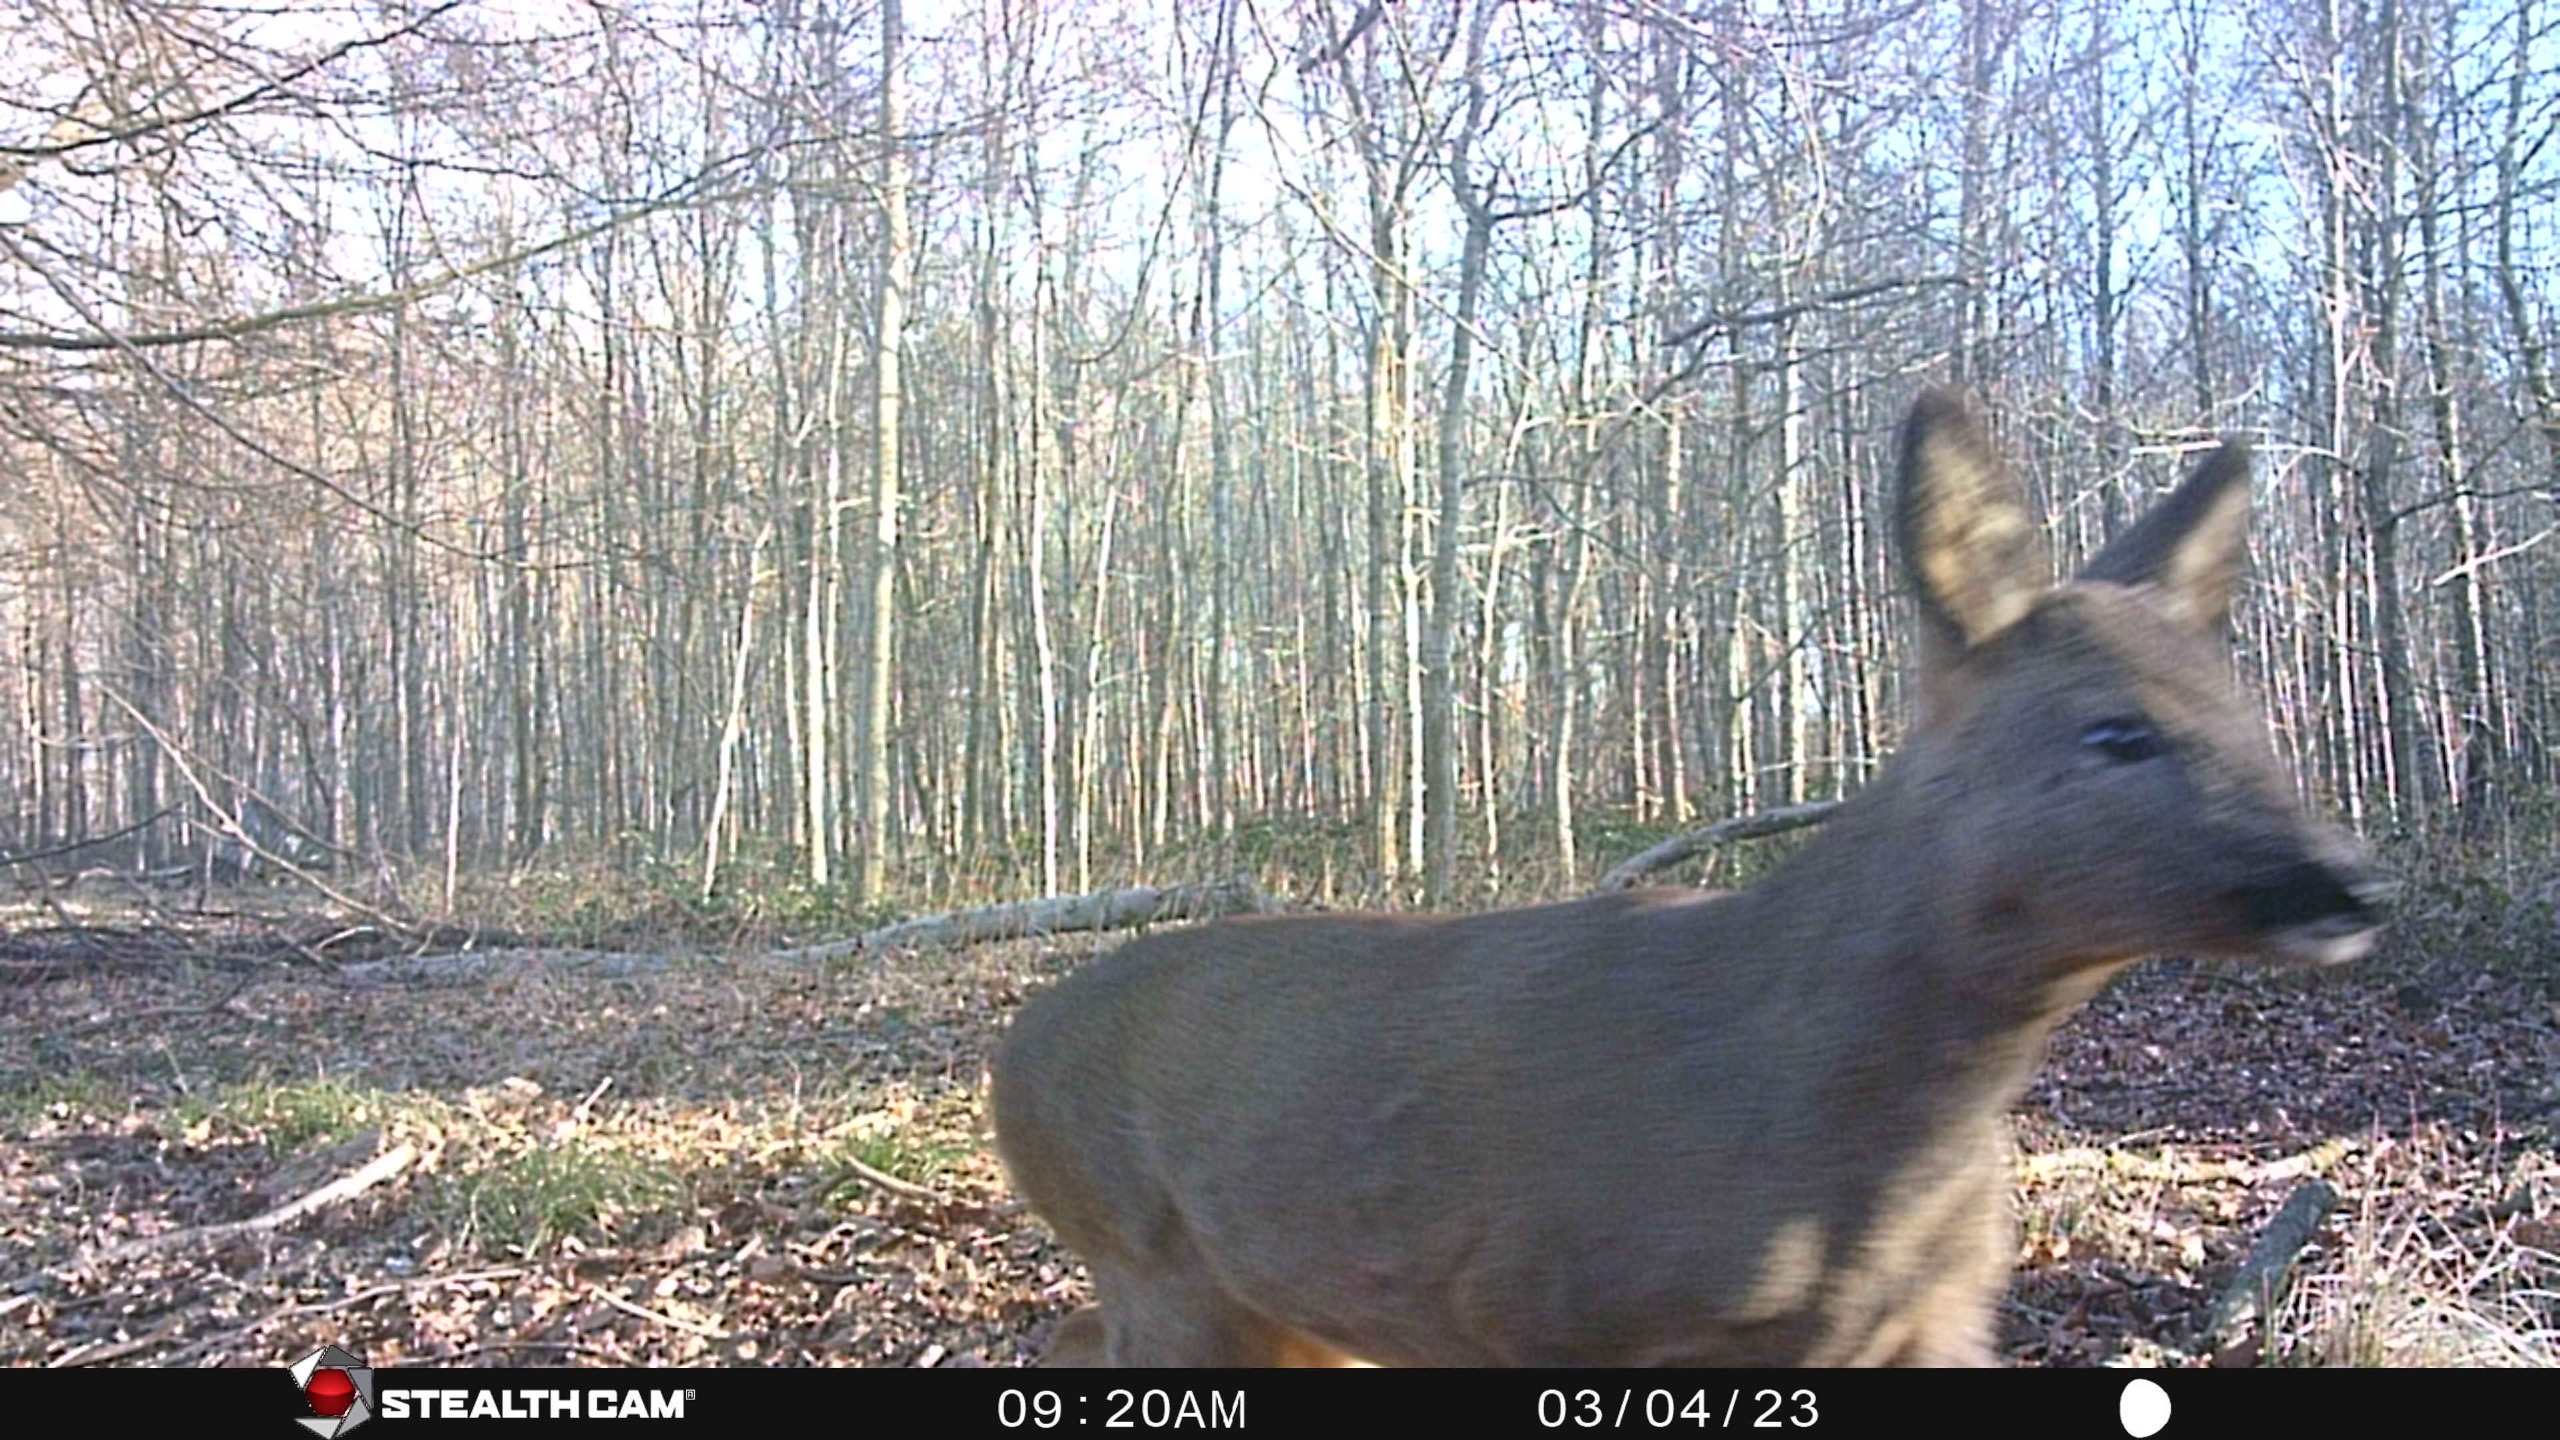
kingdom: Animalia
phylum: Chordata
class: Mammalia
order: Artiodactyla
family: Cervidae
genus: Capreolus
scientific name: Capreolus capreolus
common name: Rådyr
